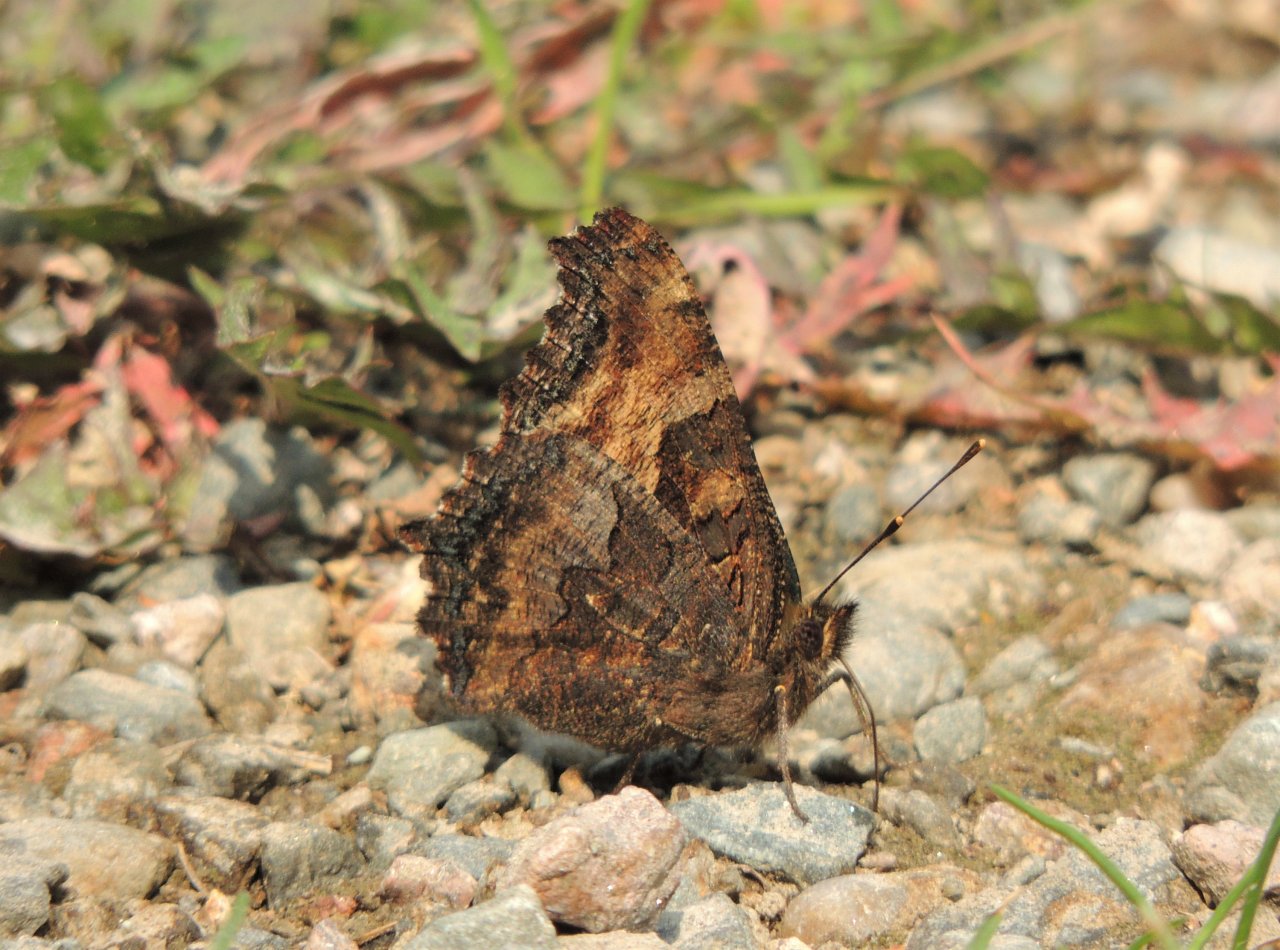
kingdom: Animalia
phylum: Arthropoda
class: Insecta
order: Lepidoptera
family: Nymphalidae
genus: Nymphalis
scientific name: Nymphalis californica
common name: California Tortoiseshell
